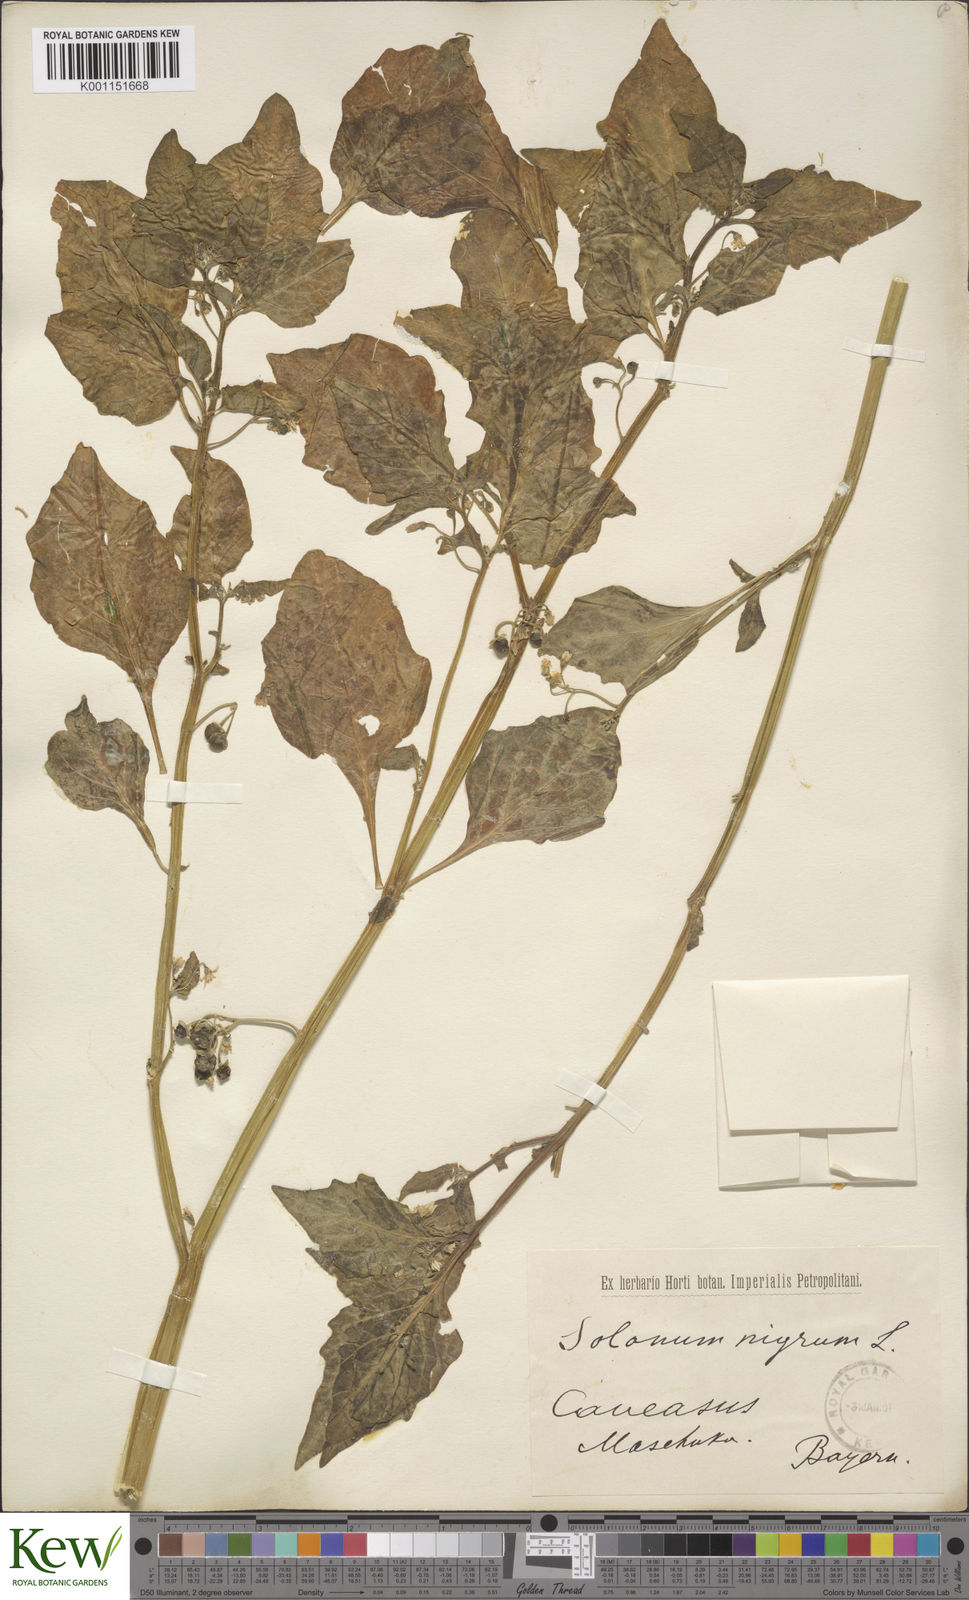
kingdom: Plantae
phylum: Tracheophyta
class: Magnoliopsida
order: Solanales
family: Solanaceae
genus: Solanum
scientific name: Solanum nigrum
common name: Black nightshade
